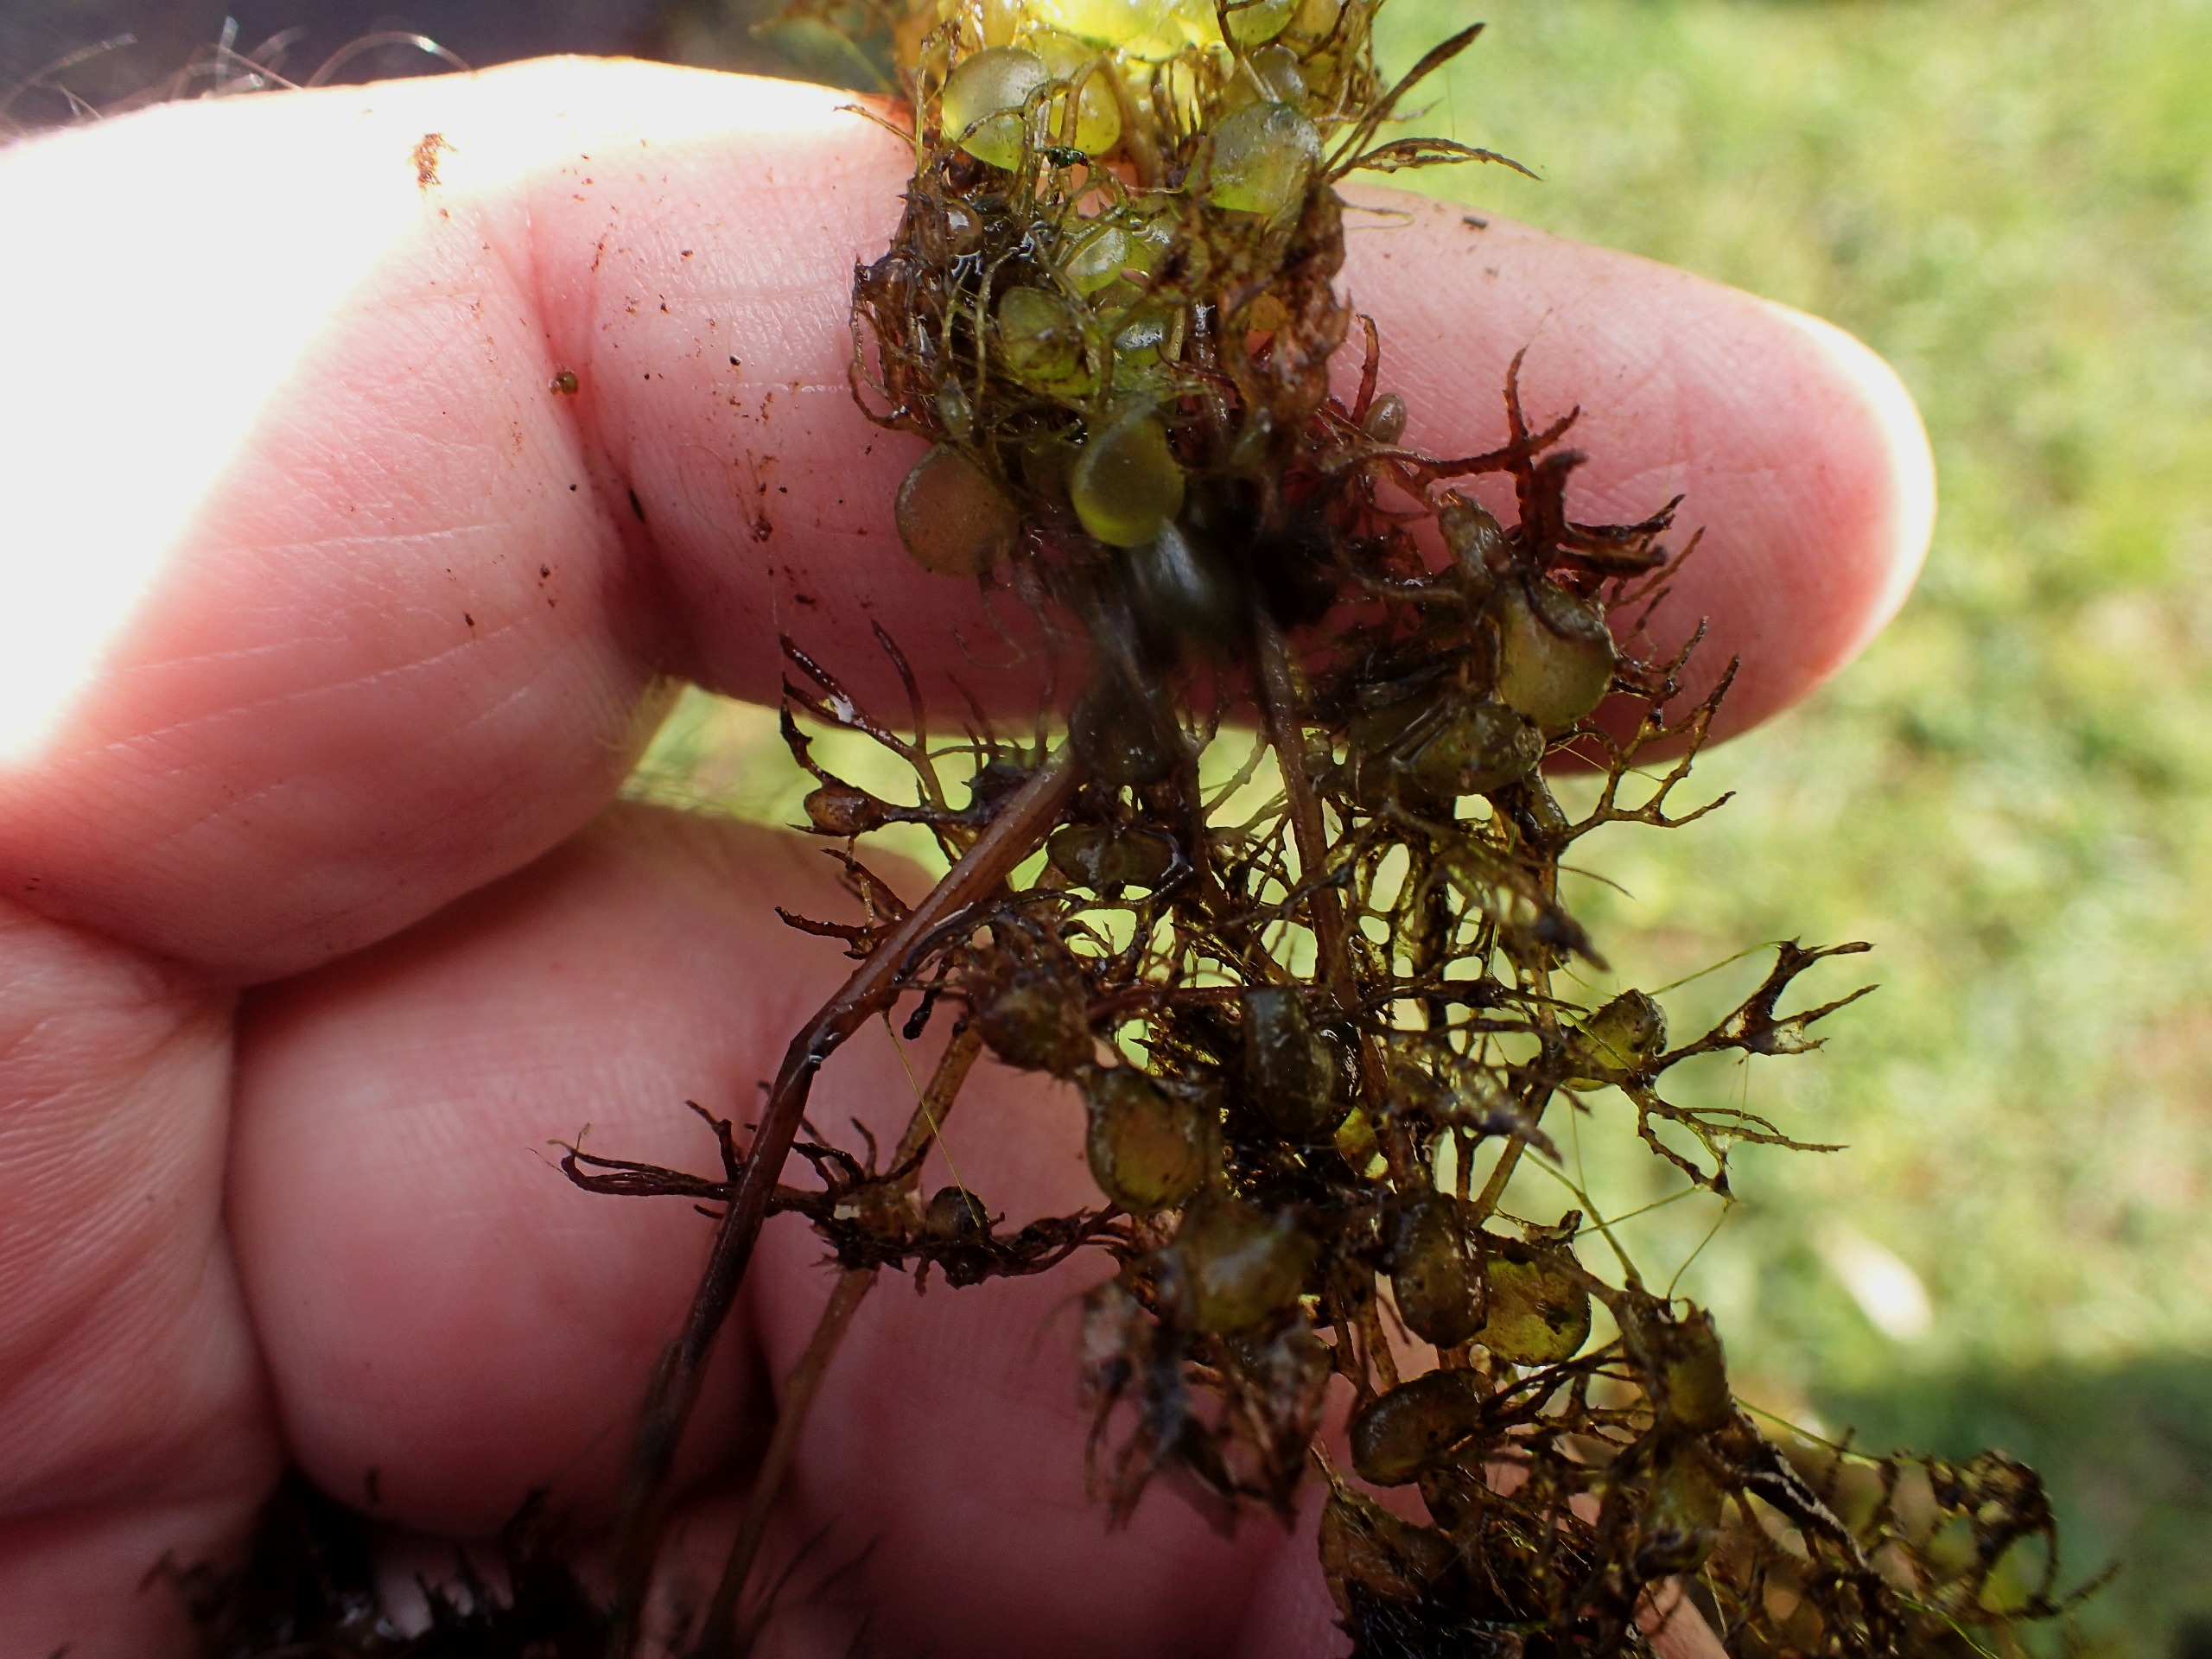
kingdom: Plantae
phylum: Tracheophyta
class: Magnoliopsida
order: Lamiales
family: Lentibulariaceae
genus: Utricularia
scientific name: Utricularia
